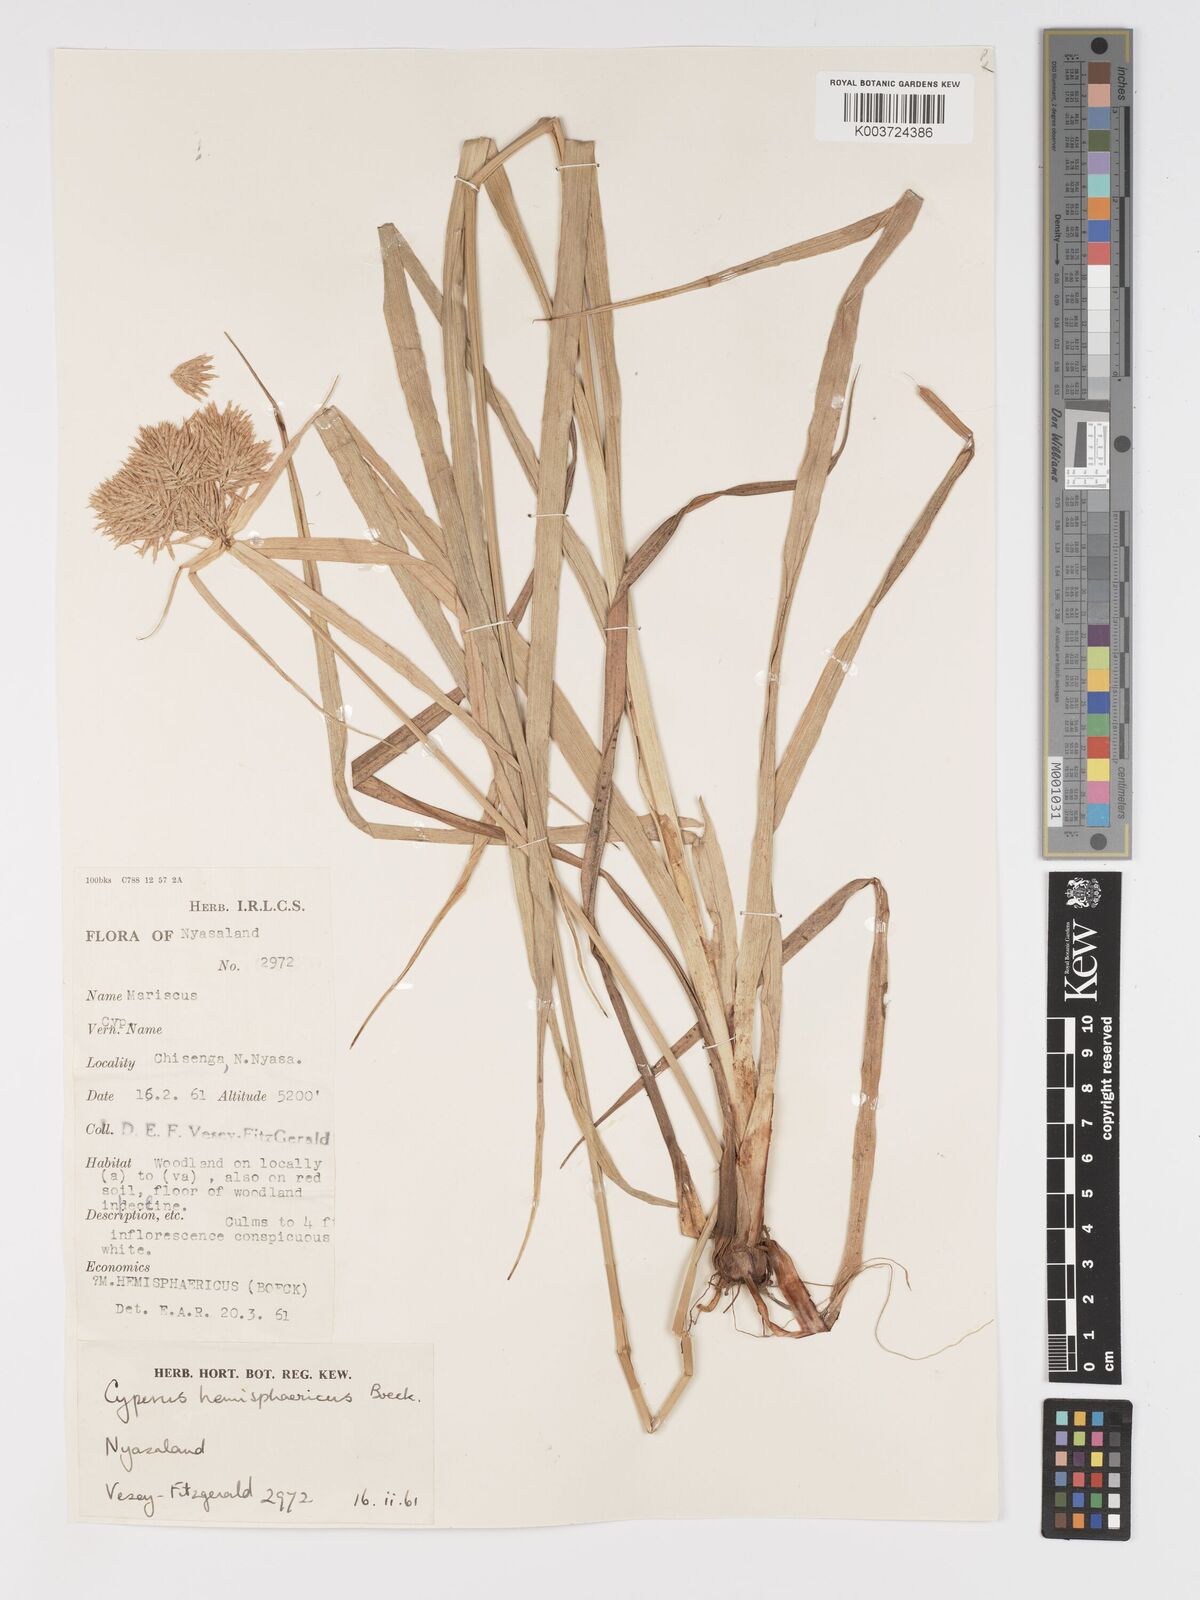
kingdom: Plantae
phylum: Tracheophyta
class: Liliopsida
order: Poales
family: Cyperaceae
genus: Cyperus
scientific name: Cyperus hemisphaericus
